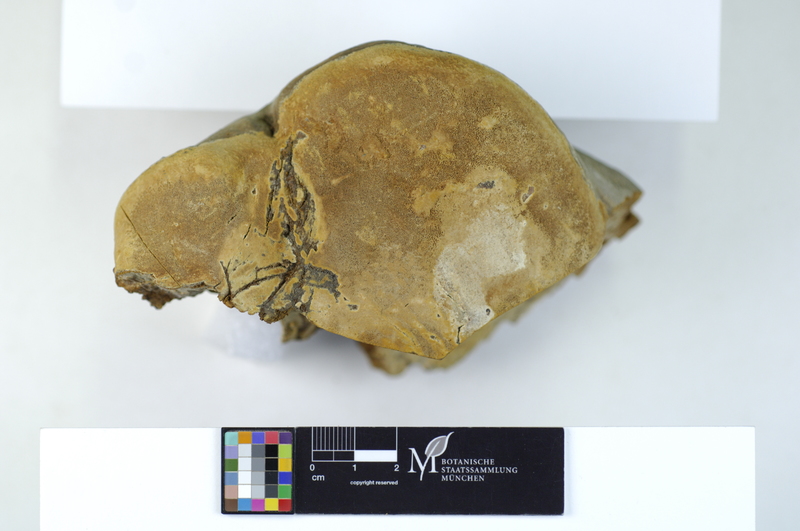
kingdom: Fungi
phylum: Basidiomycota
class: Agaricomycetes
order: Hymenochaetales
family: Hymenochaetaceae
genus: Fomitiporia
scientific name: Fomitiporia robusta
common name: Robust bracket
